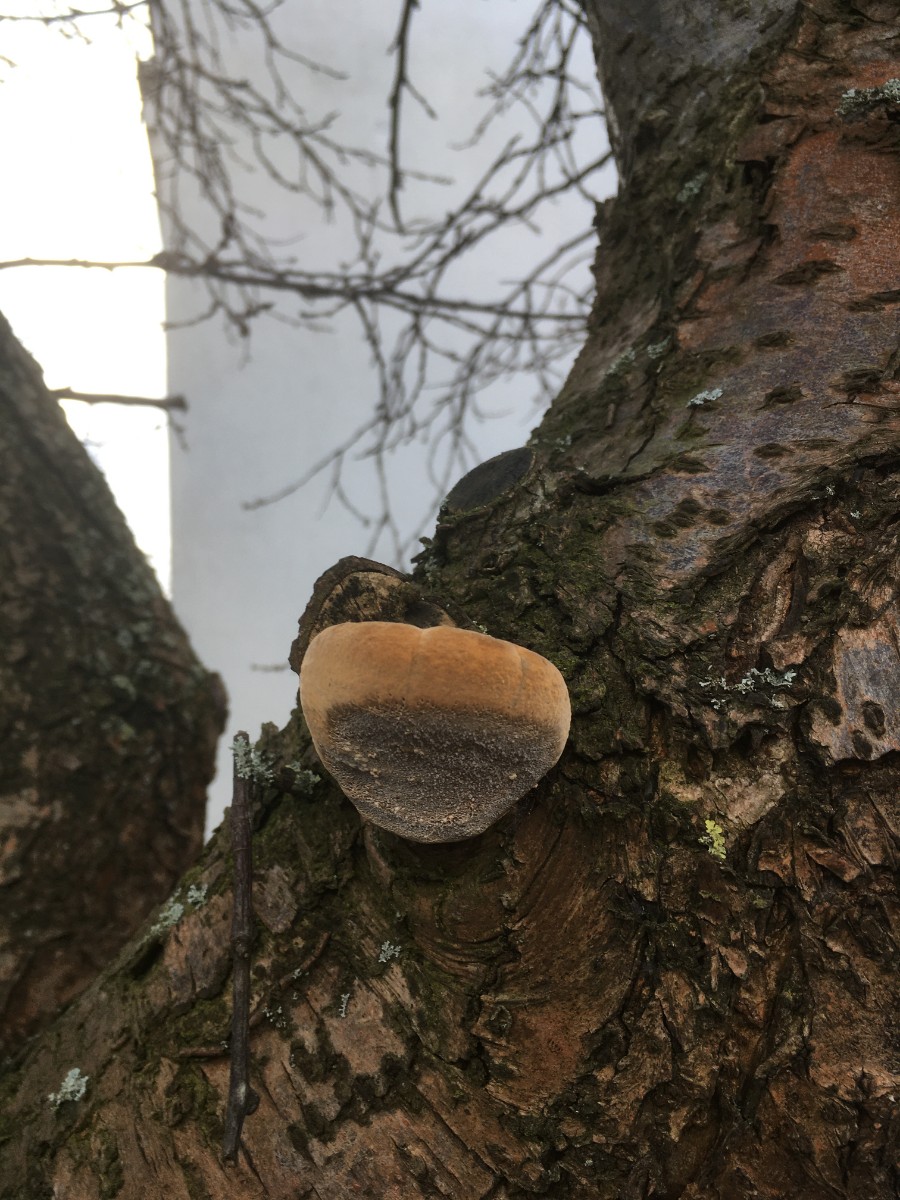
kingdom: Fungi
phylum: Basidiomycota
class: Agaricomycetes
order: Hymenochaetales
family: Hymenochaetaceae
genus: Phellinus
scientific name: Phellinus pomaceus
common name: blomme-ildporesvamp
